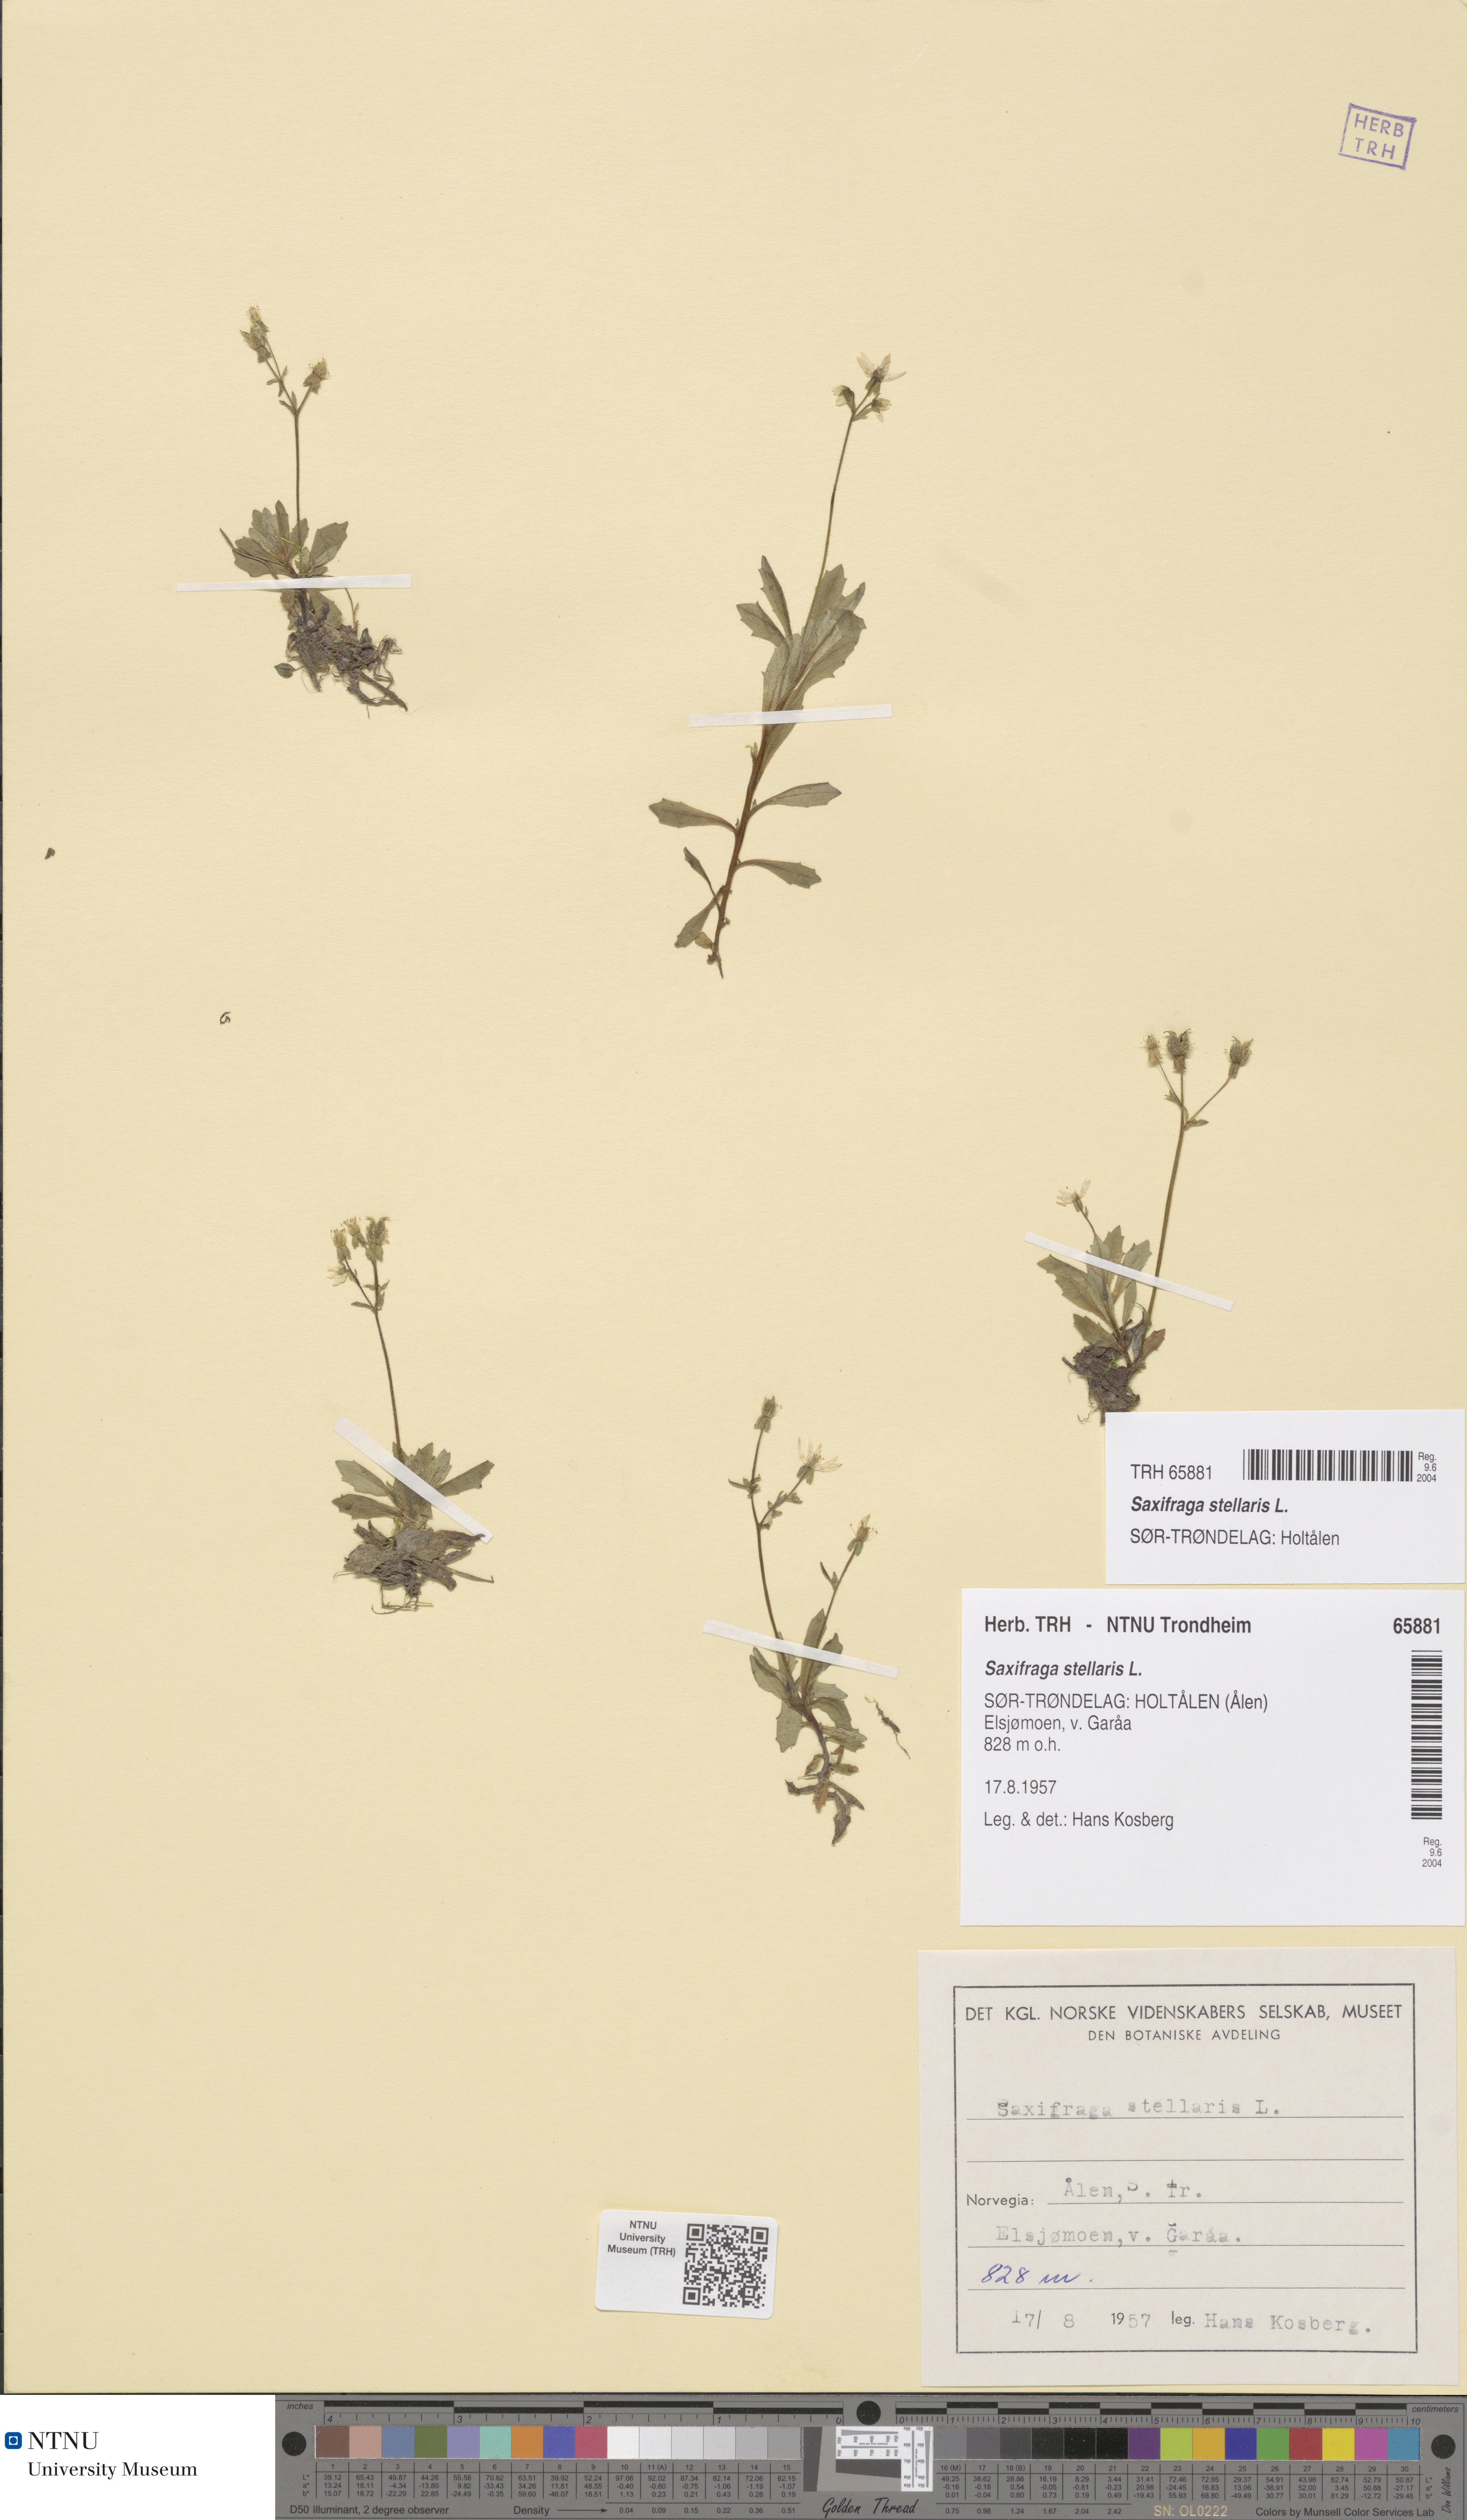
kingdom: Plantae
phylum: Tracheophyta
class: Magnoliopsida
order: Saxifragales
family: Saxifragaceae
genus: Micranthes
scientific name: Micranthes stellaris
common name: Starry saxifrage
